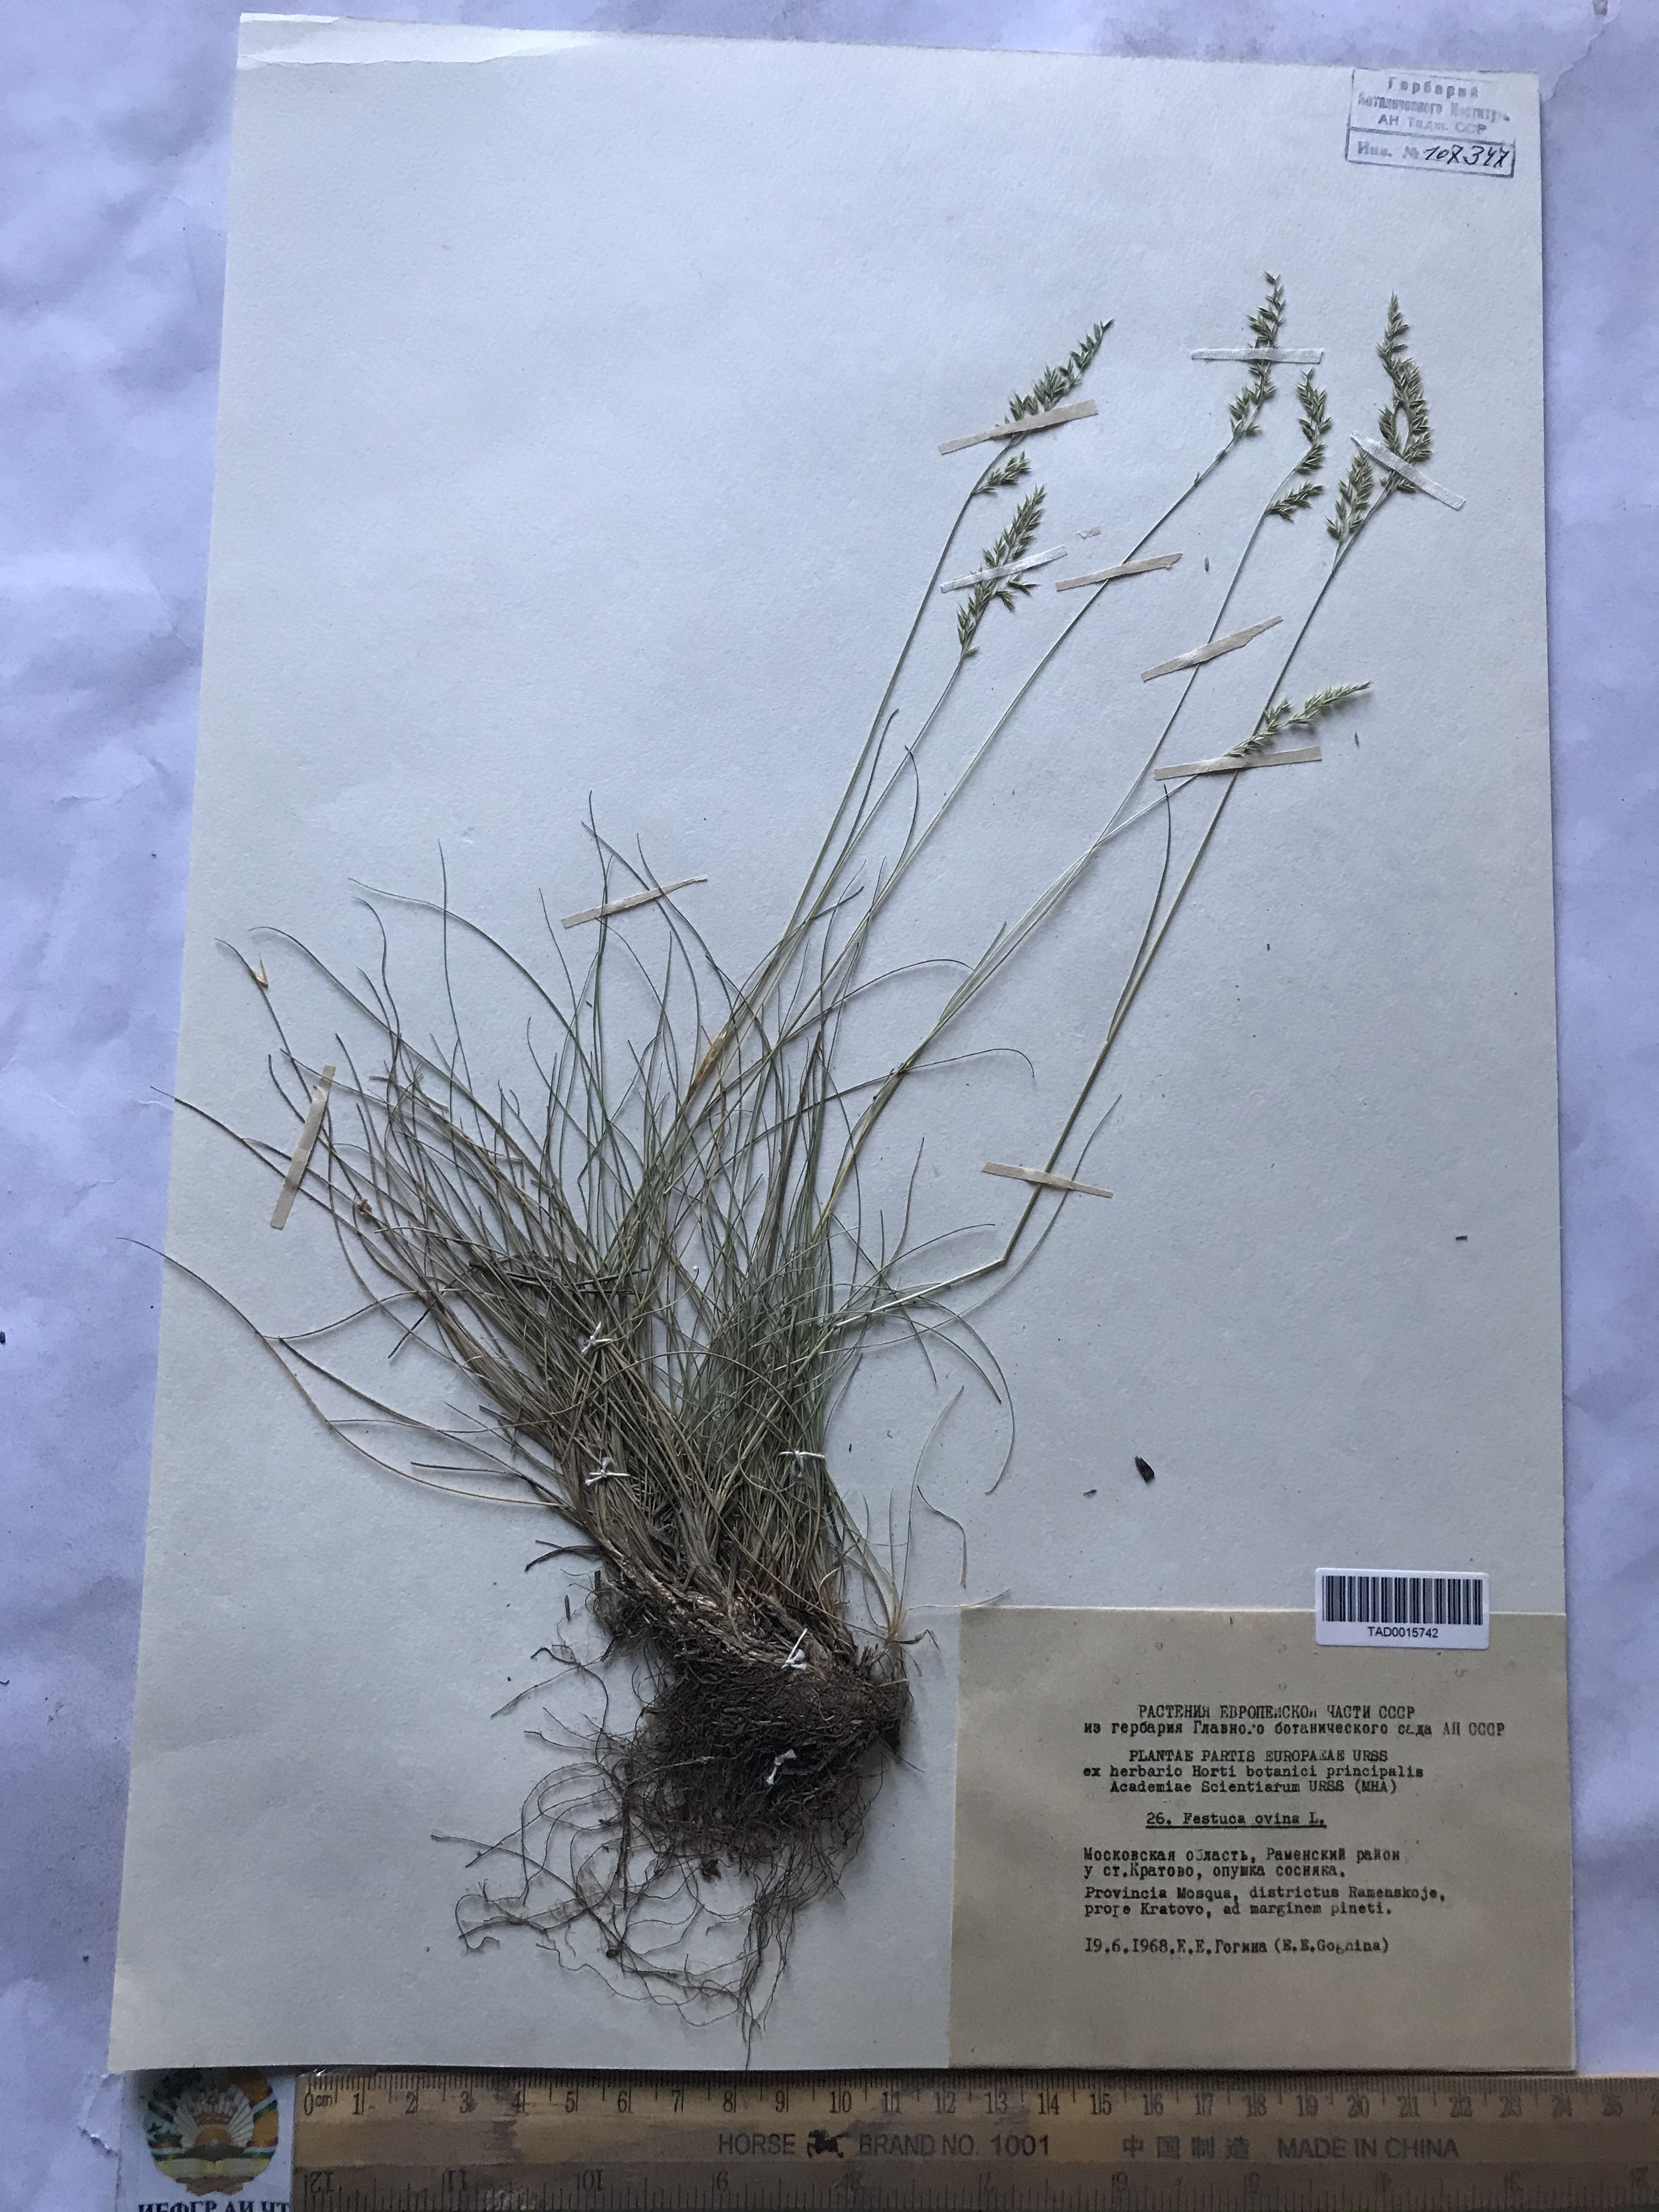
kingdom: Plantae
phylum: Tracheophyta
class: Liliopsida
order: Poales
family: Poaceae
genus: Festuca
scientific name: Festuca ovina
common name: Sheep fescue
